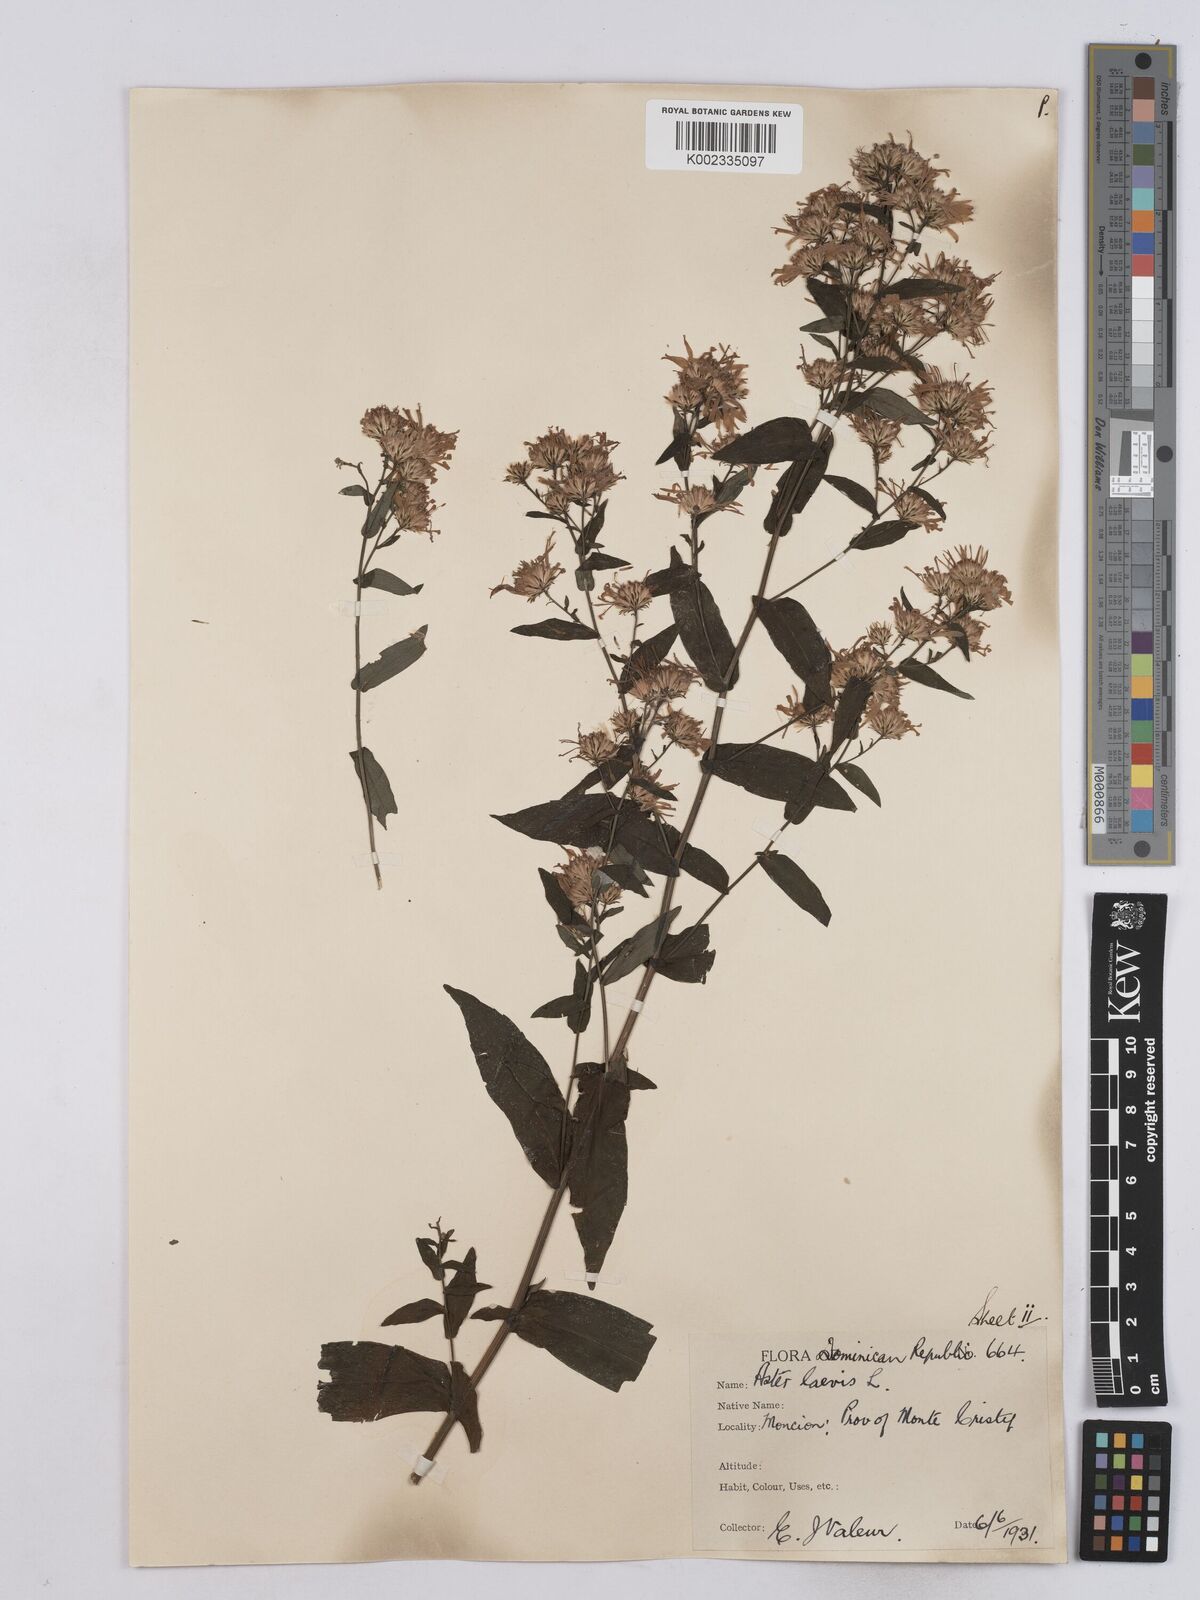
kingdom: Plantae
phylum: Tracheophyta
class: Magnoliopsida
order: Asterales
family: Asteraceae
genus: Symphyotrichum
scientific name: Symphyotrichum laeve
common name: Glaucous aster
